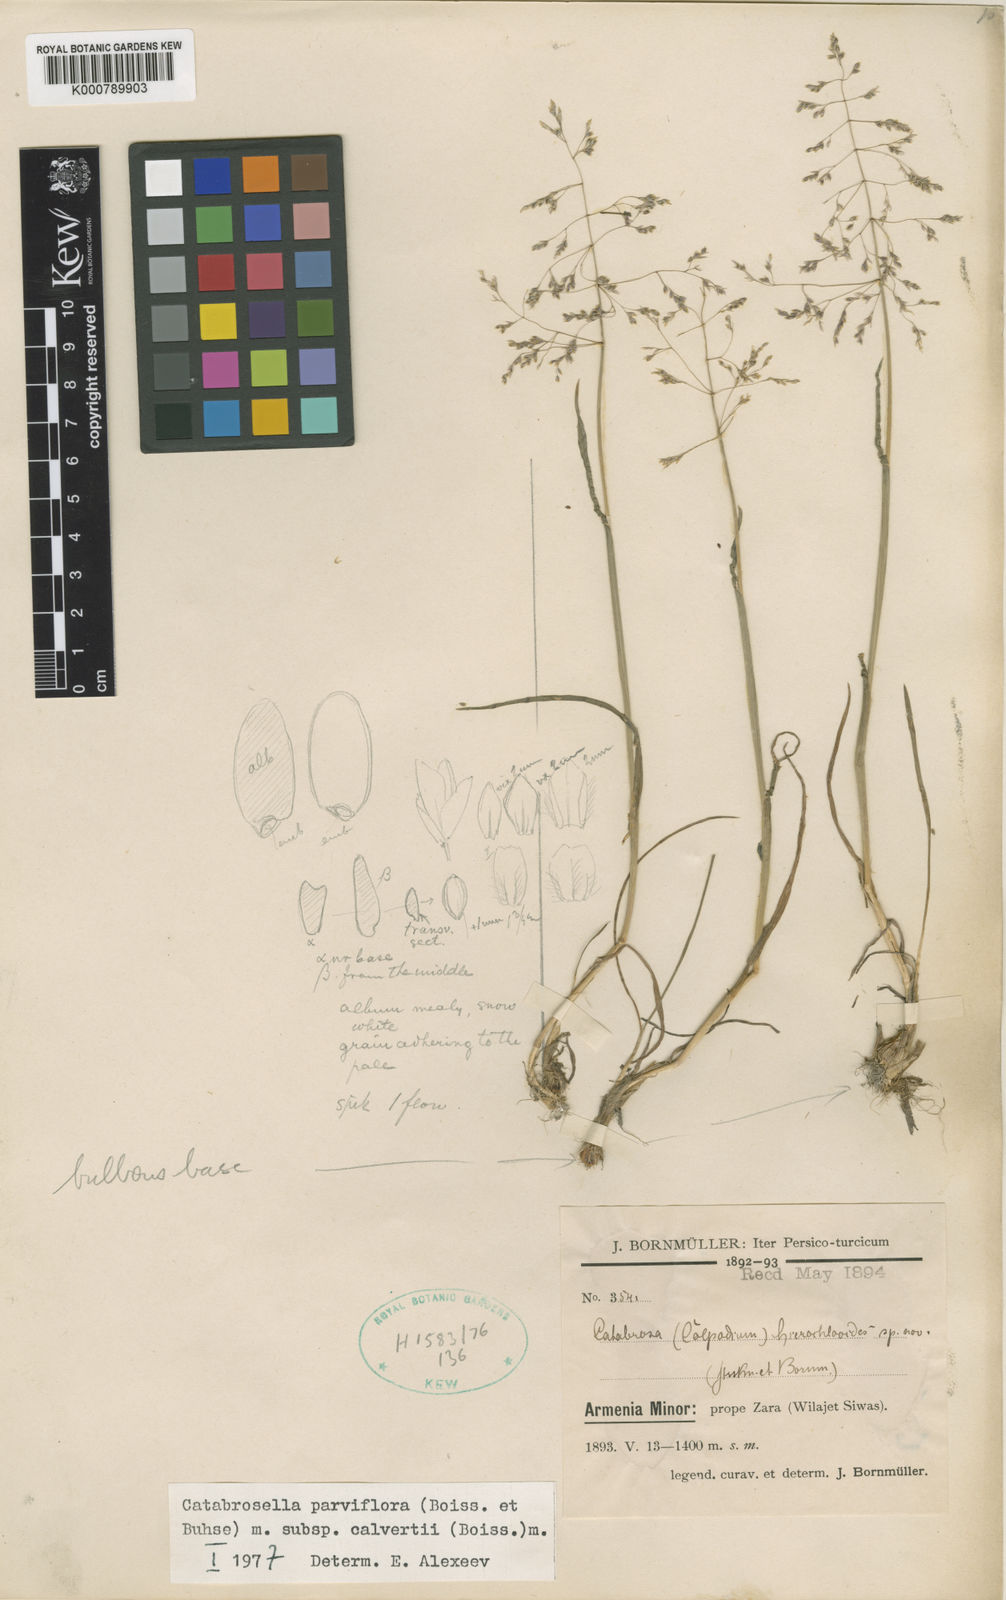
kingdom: Plantae
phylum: Tracheophyta
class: Liliopsida
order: Poales
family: Poaceae
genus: Catabrosella
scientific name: Catabrosella humilis
